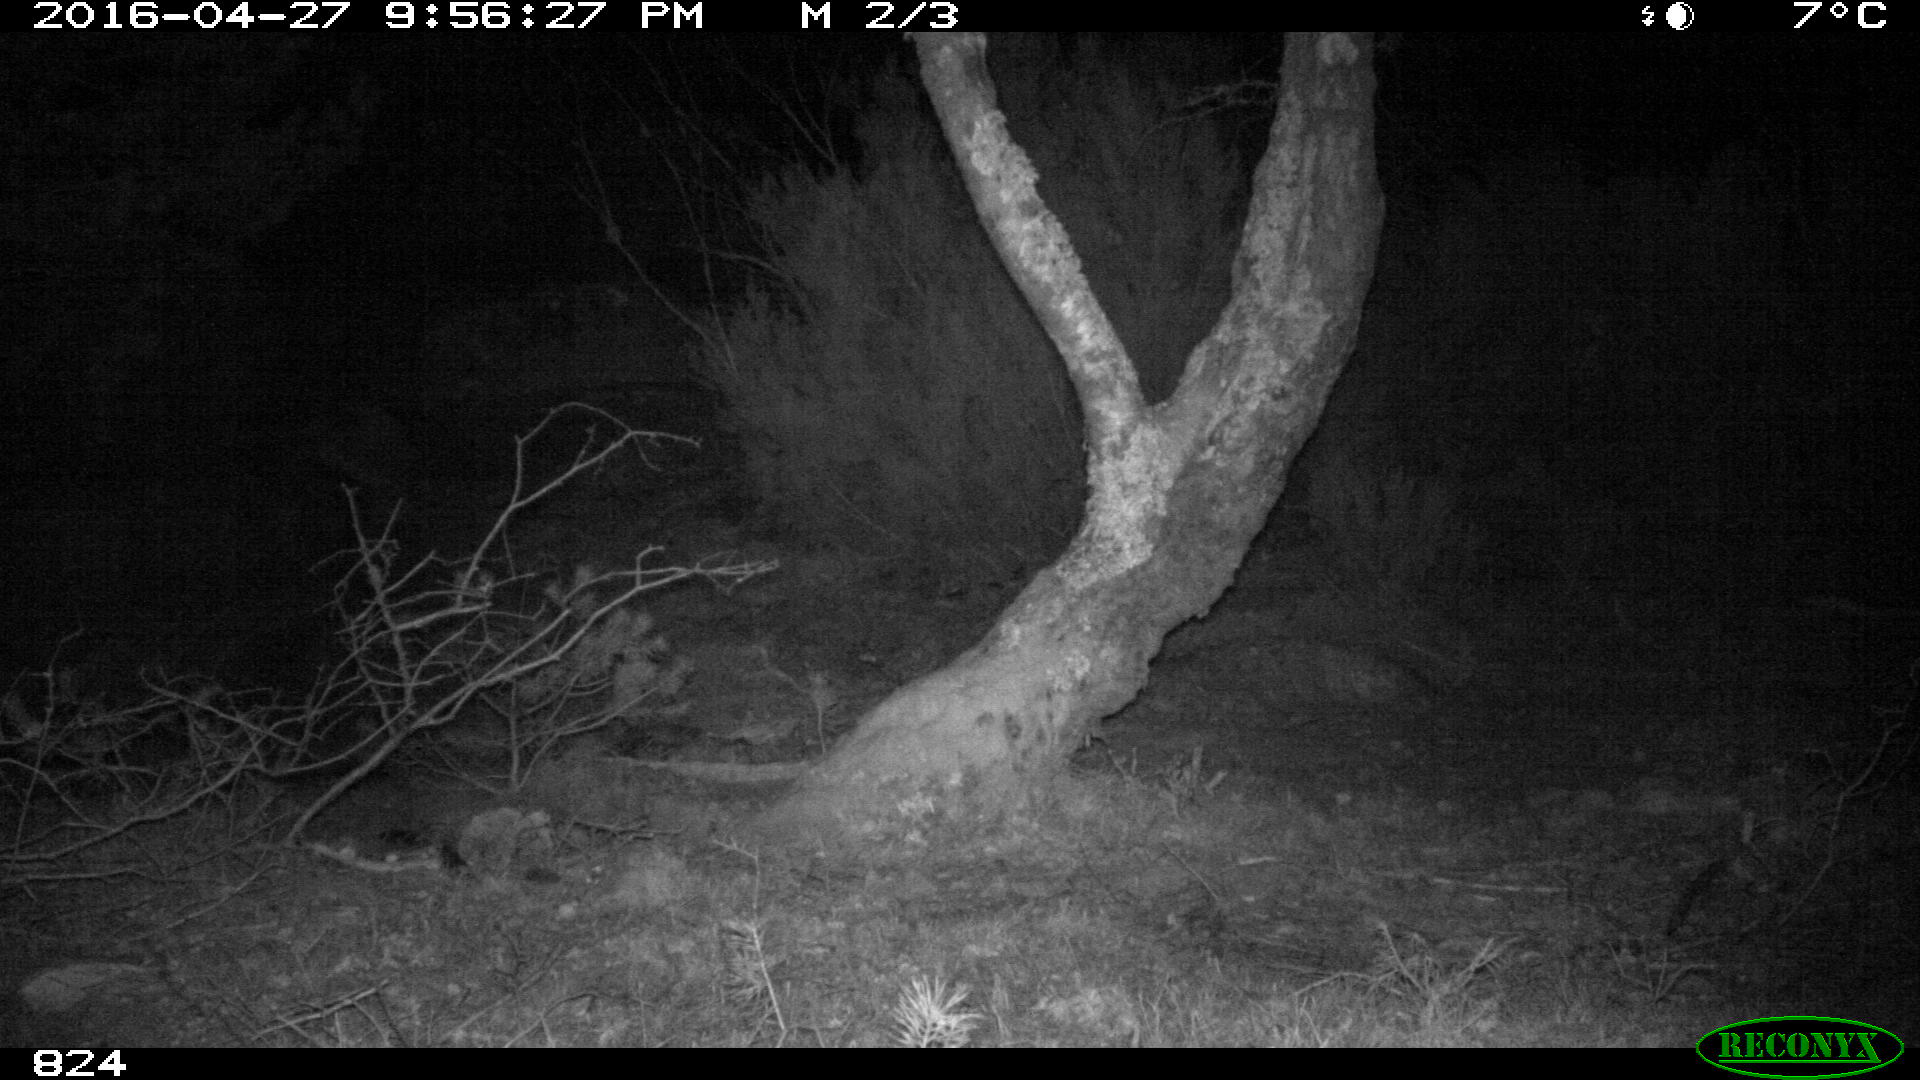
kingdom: Animalia
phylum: Chordata
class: Mammalia
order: Artiodactyla
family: Suidae
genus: Sus
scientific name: Sus scrofa
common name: Wild boar
